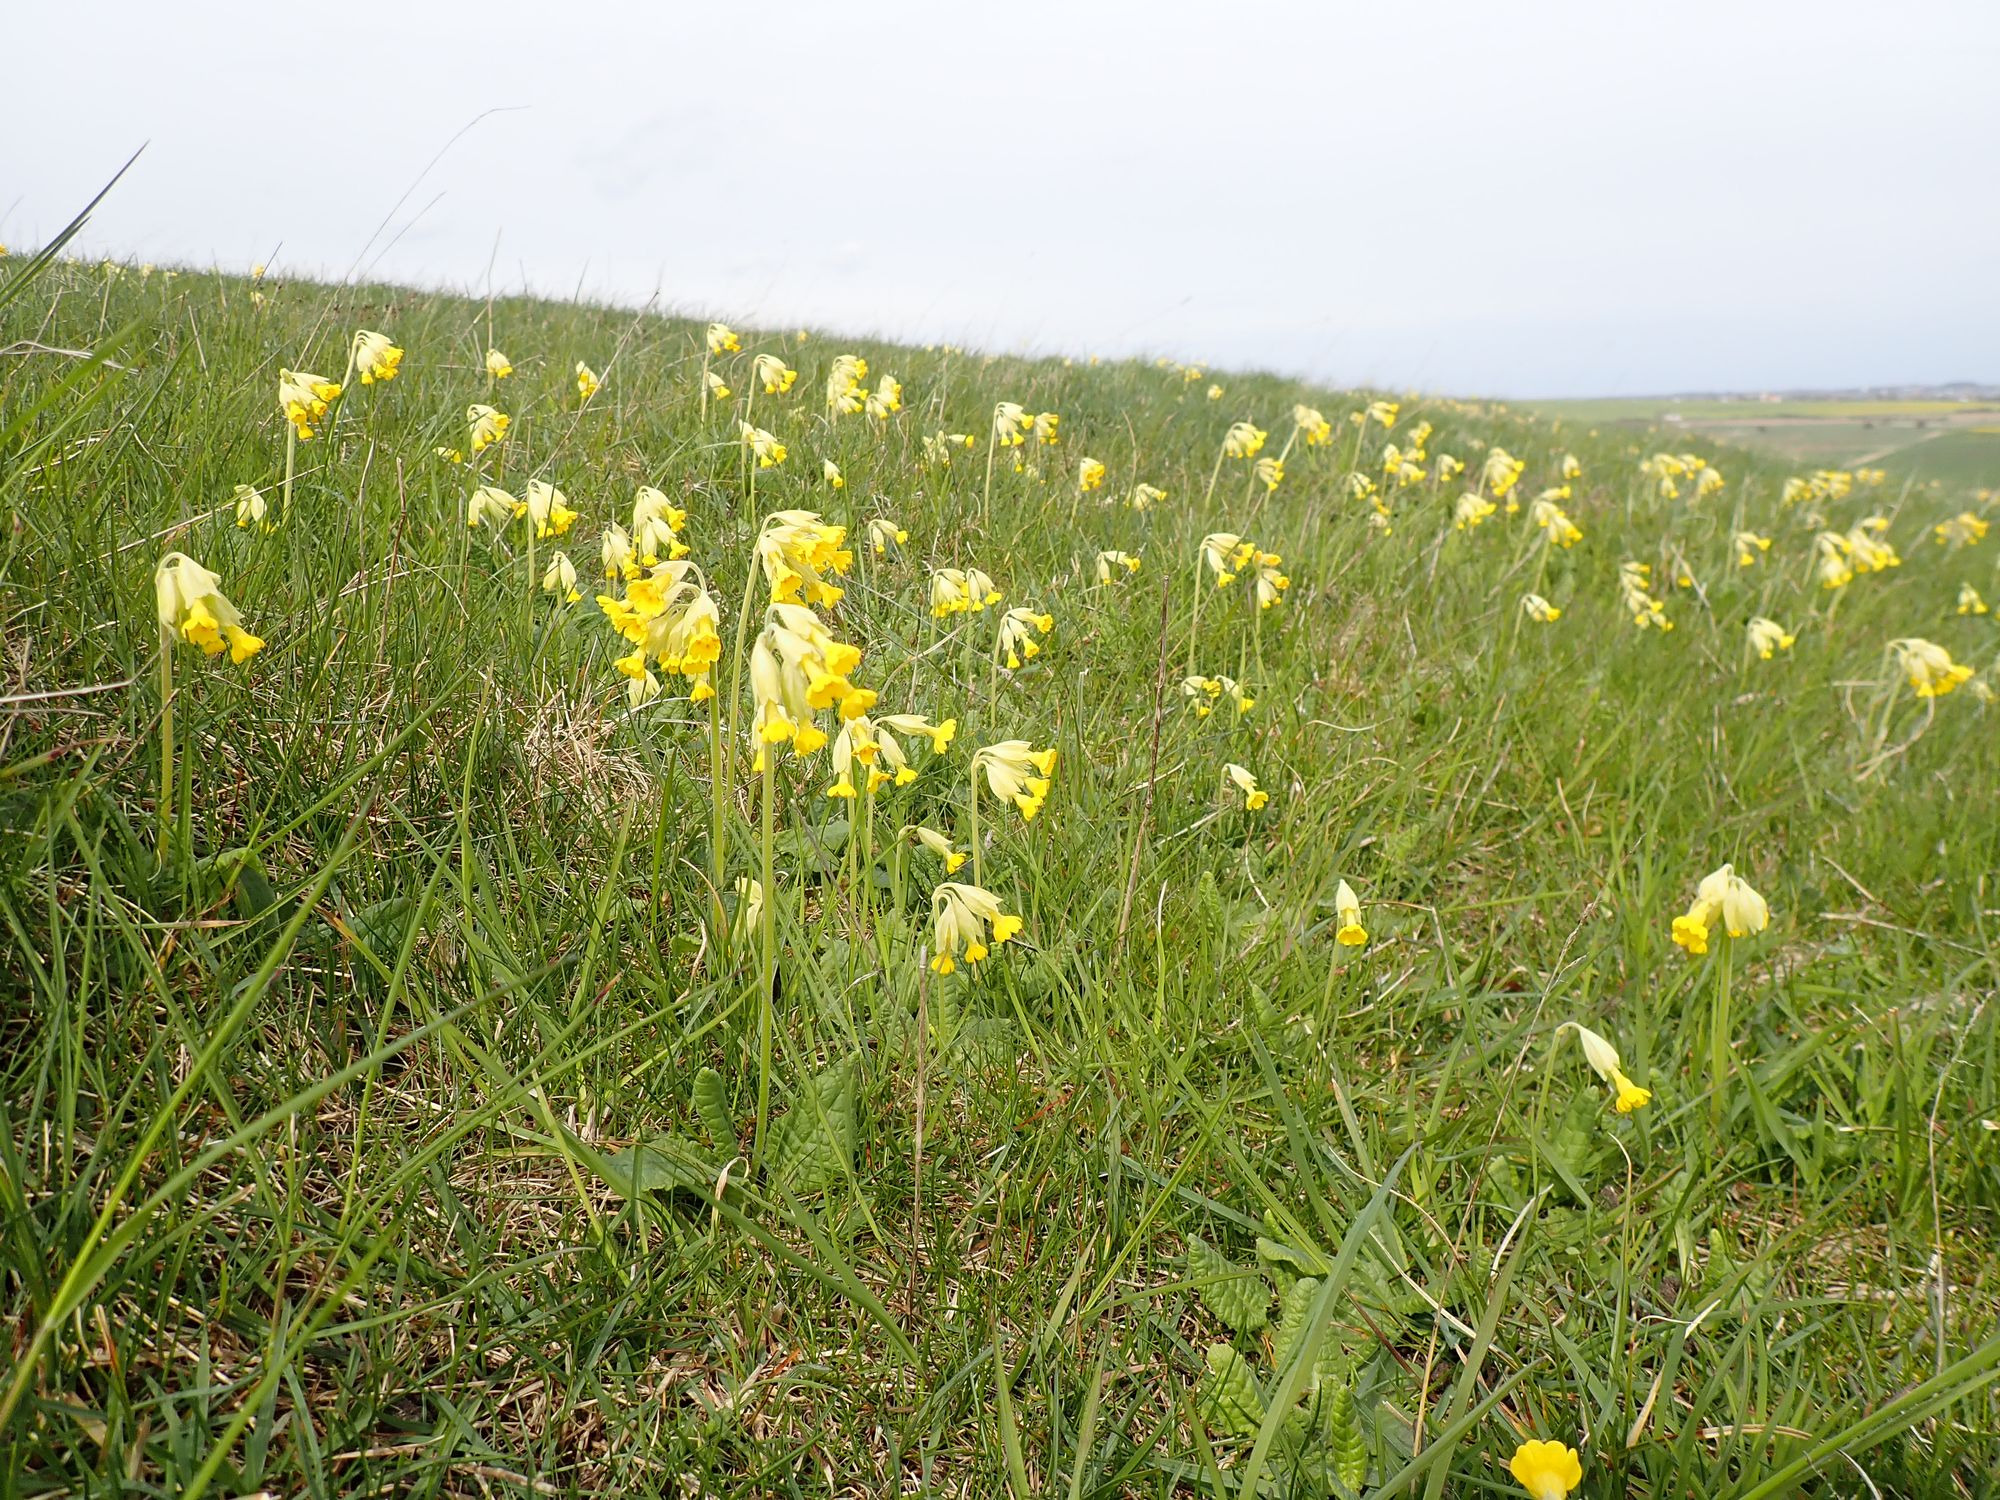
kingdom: Plantae
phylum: Tracheophyta
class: Magnoliopsida
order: Ericales
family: Primulaceae
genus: Primula
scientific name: Primula veris
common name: Hulkravet kodriver
